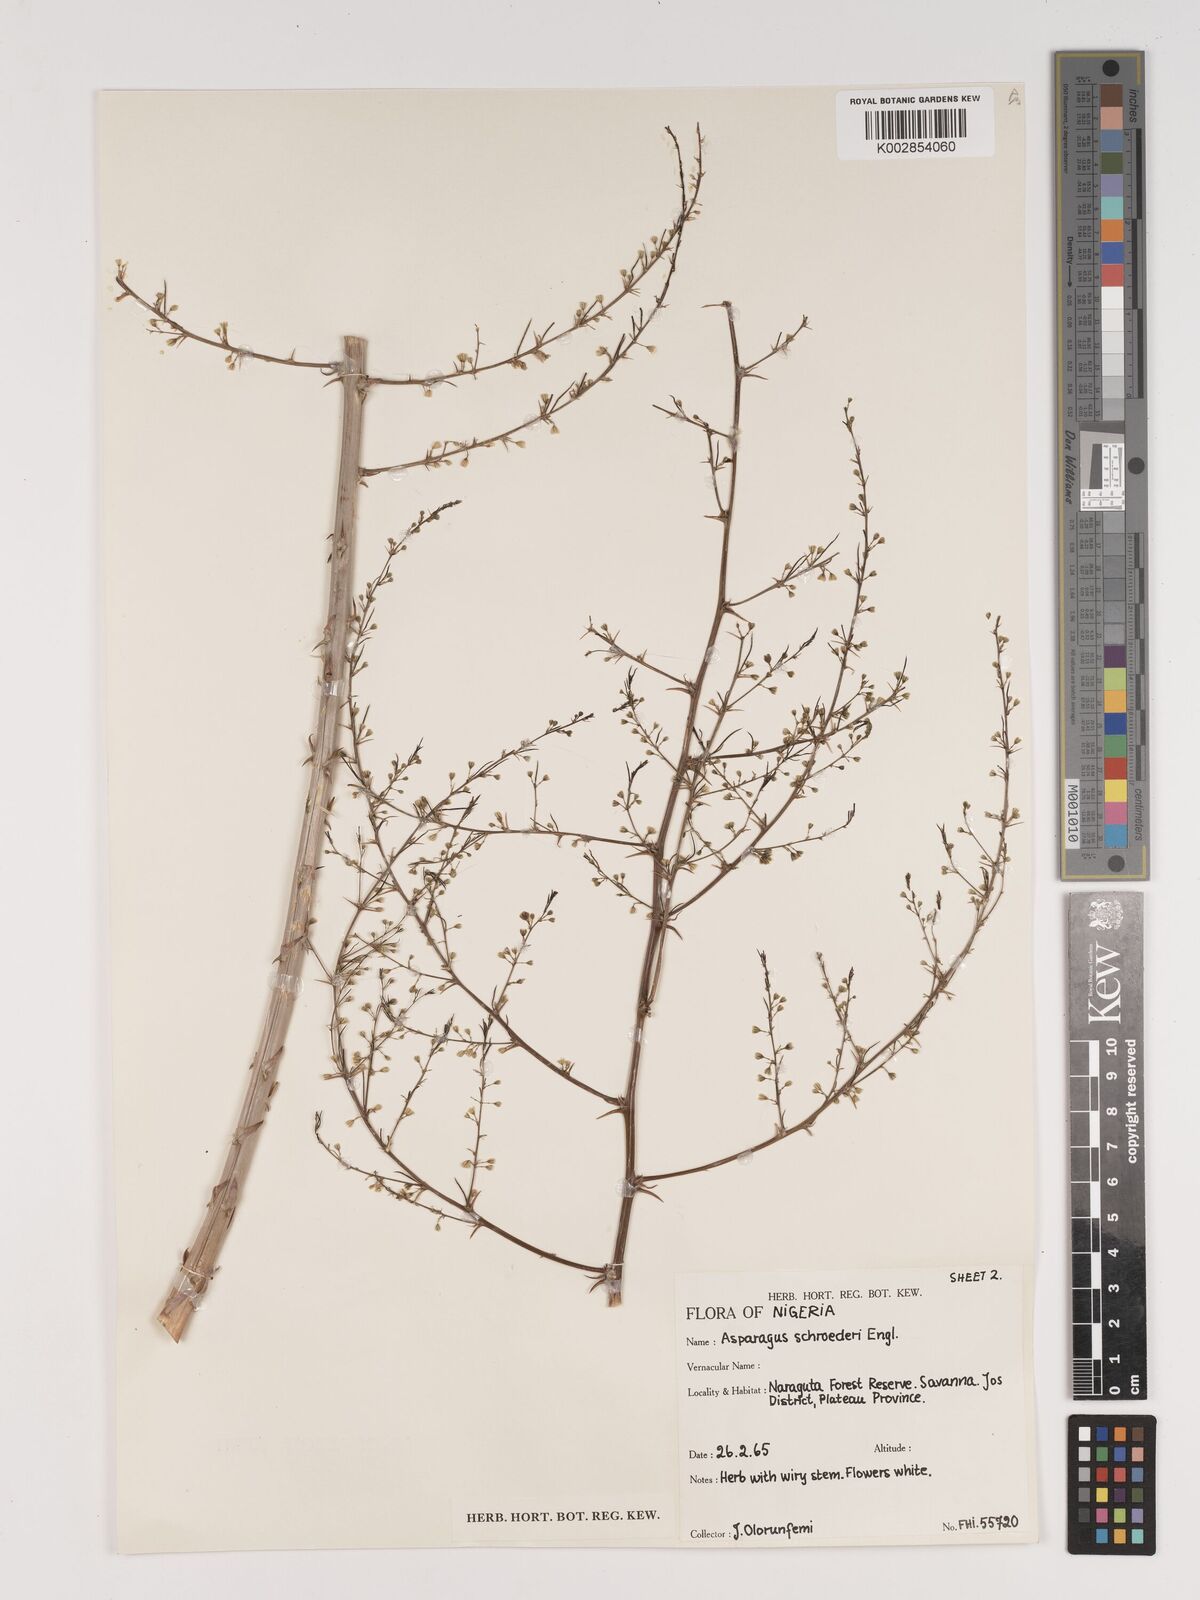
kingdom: Plantae
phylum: Tracheophyta
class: Liliopsida
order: Asparagales
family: Asparagaceae
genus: Asparagus
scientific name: Asparagus schroederi
